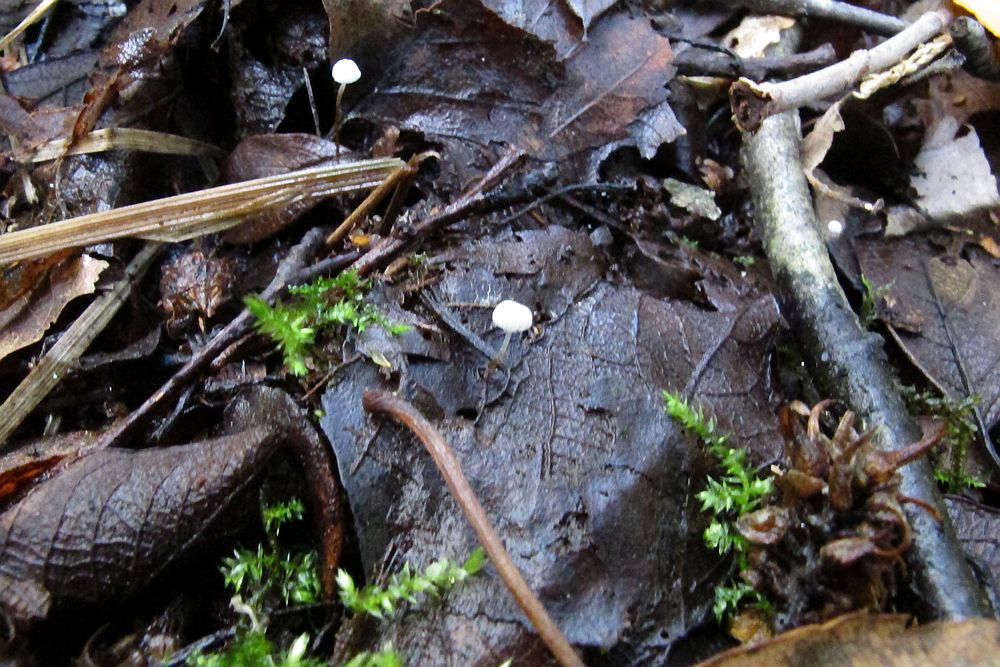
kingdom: Fungi
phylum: Basidiomycota
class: Agaricomycetes
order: Agaricales
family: Physalacriaceae
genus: Rhizomarasmius
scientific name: Rhizomarasmius setosus
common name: bøgeblads-bruskhat
